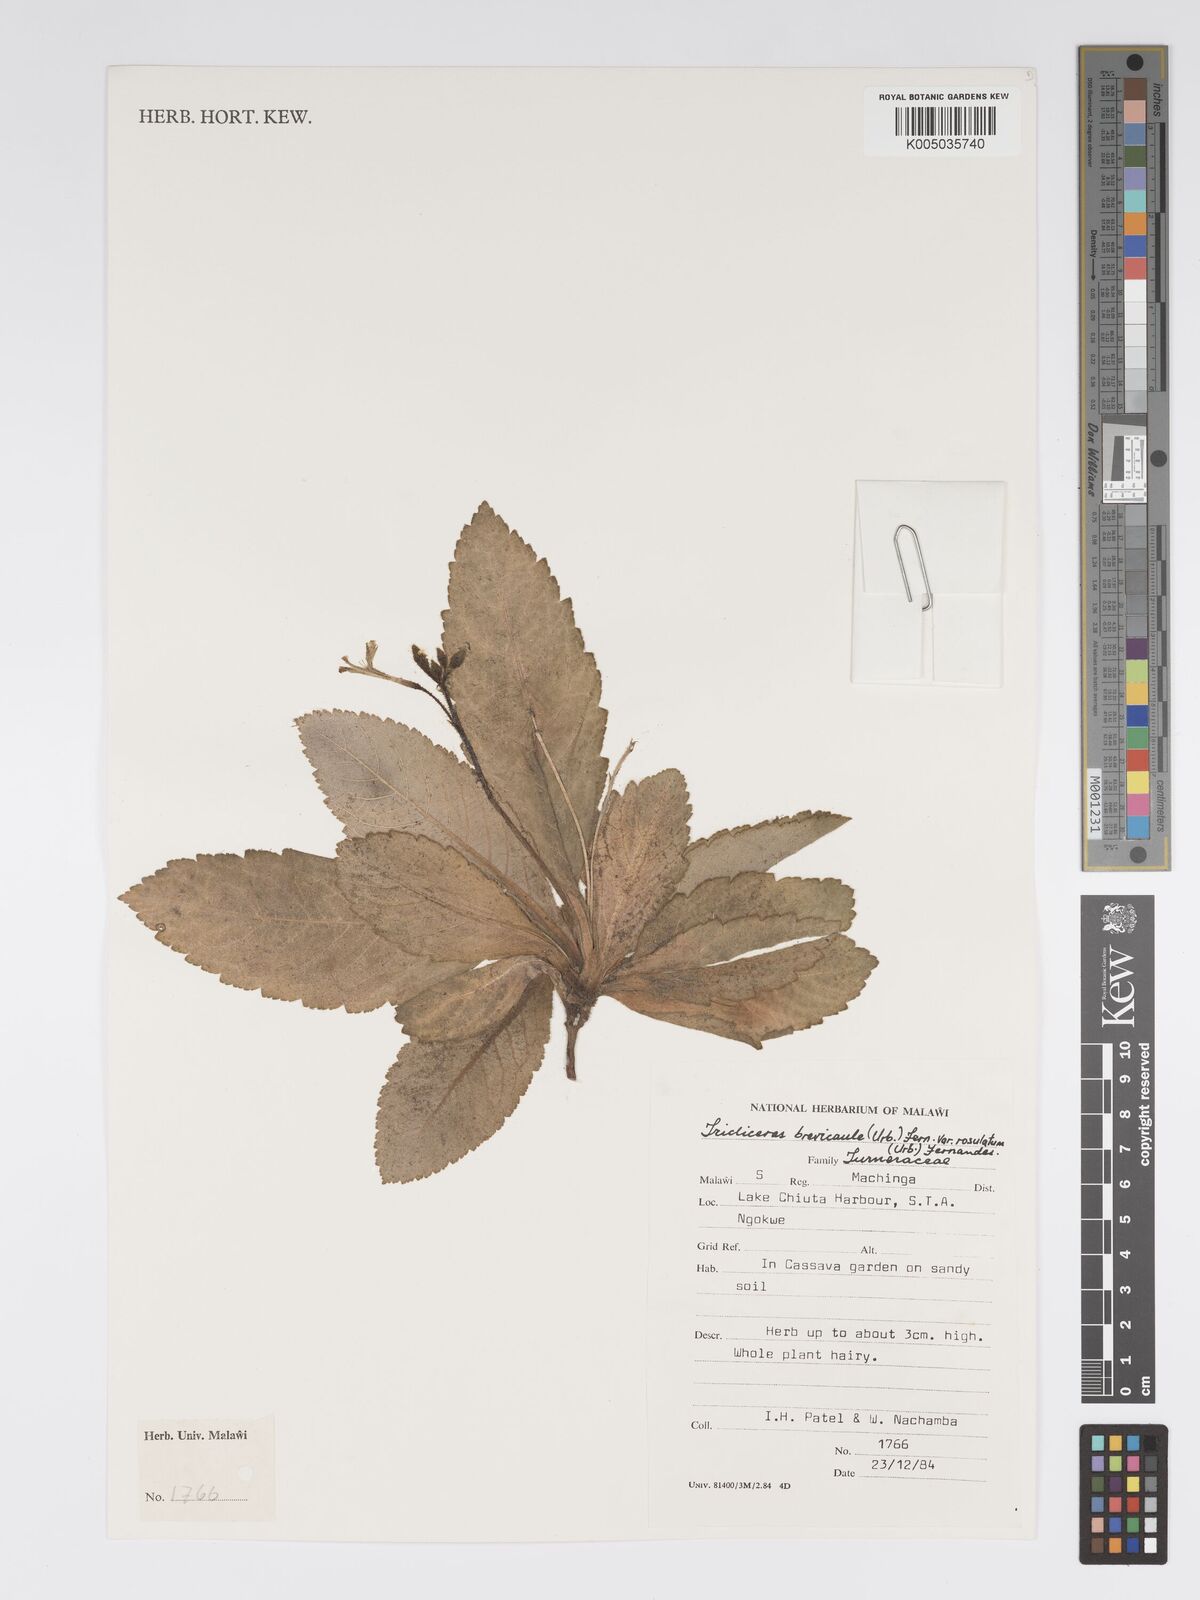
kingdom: Plantae
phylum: Tracheophyta
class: Magnoliopsida
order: Malpighiales
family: Turneraceae
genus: Tricliceras
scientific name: Tricliceras brevicaule
